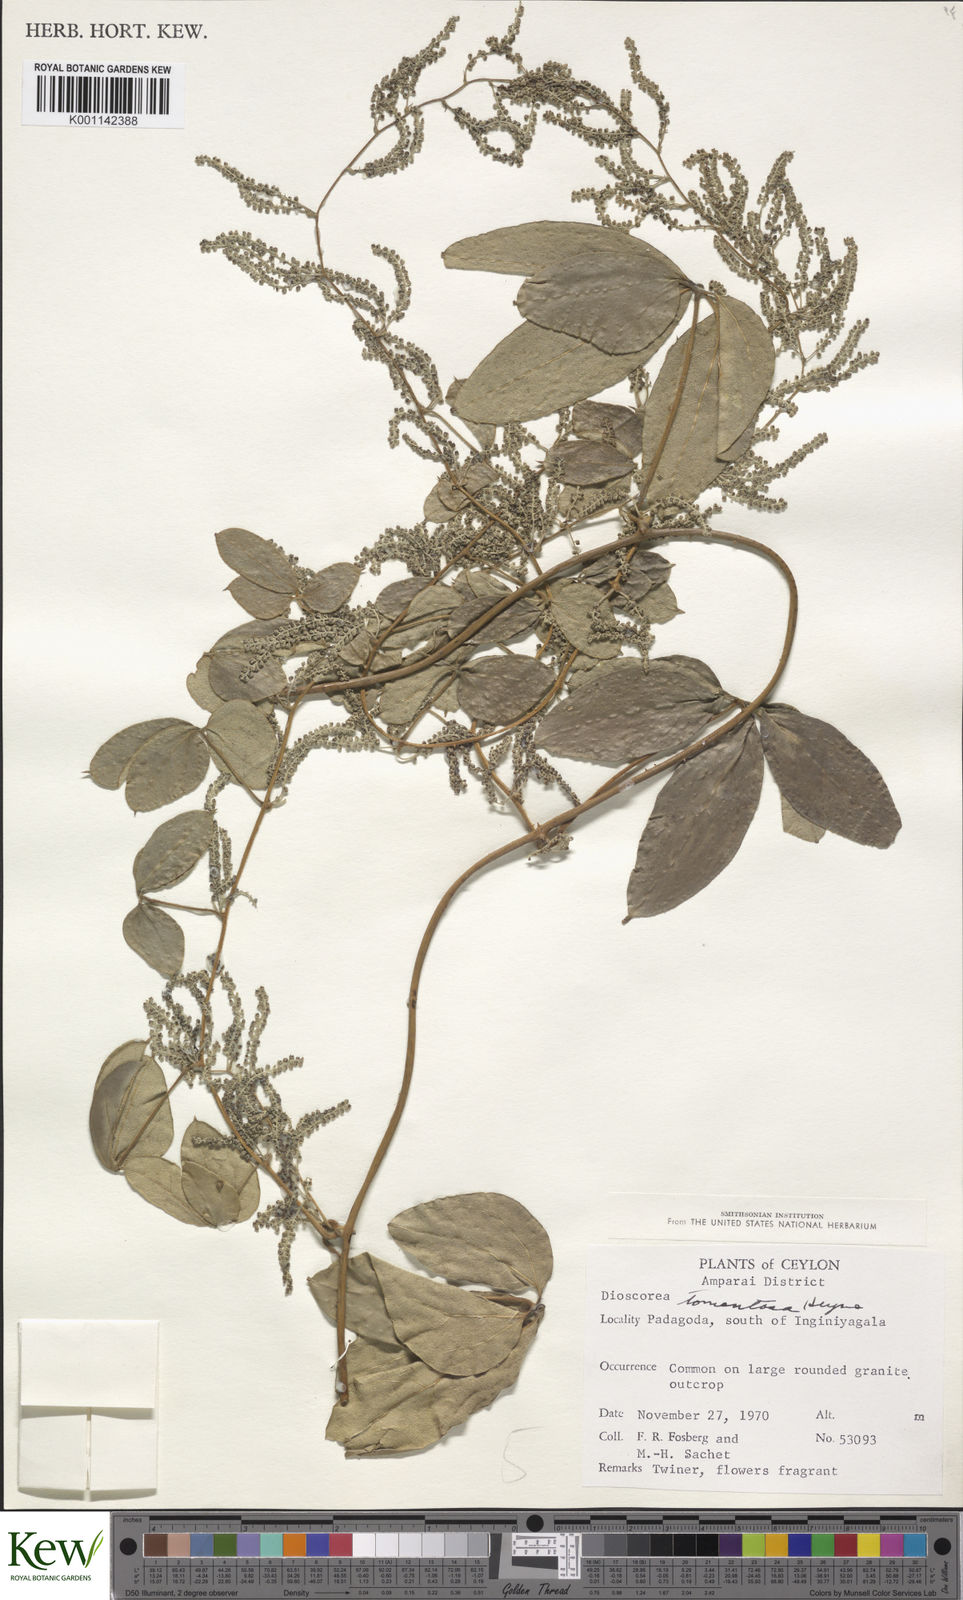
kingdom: Plantae
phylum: Tracheophyta
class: Liliopsida
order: Dioscoreales
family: Dioscoreaceae
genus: Dioscorea
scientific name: Dioscorea
